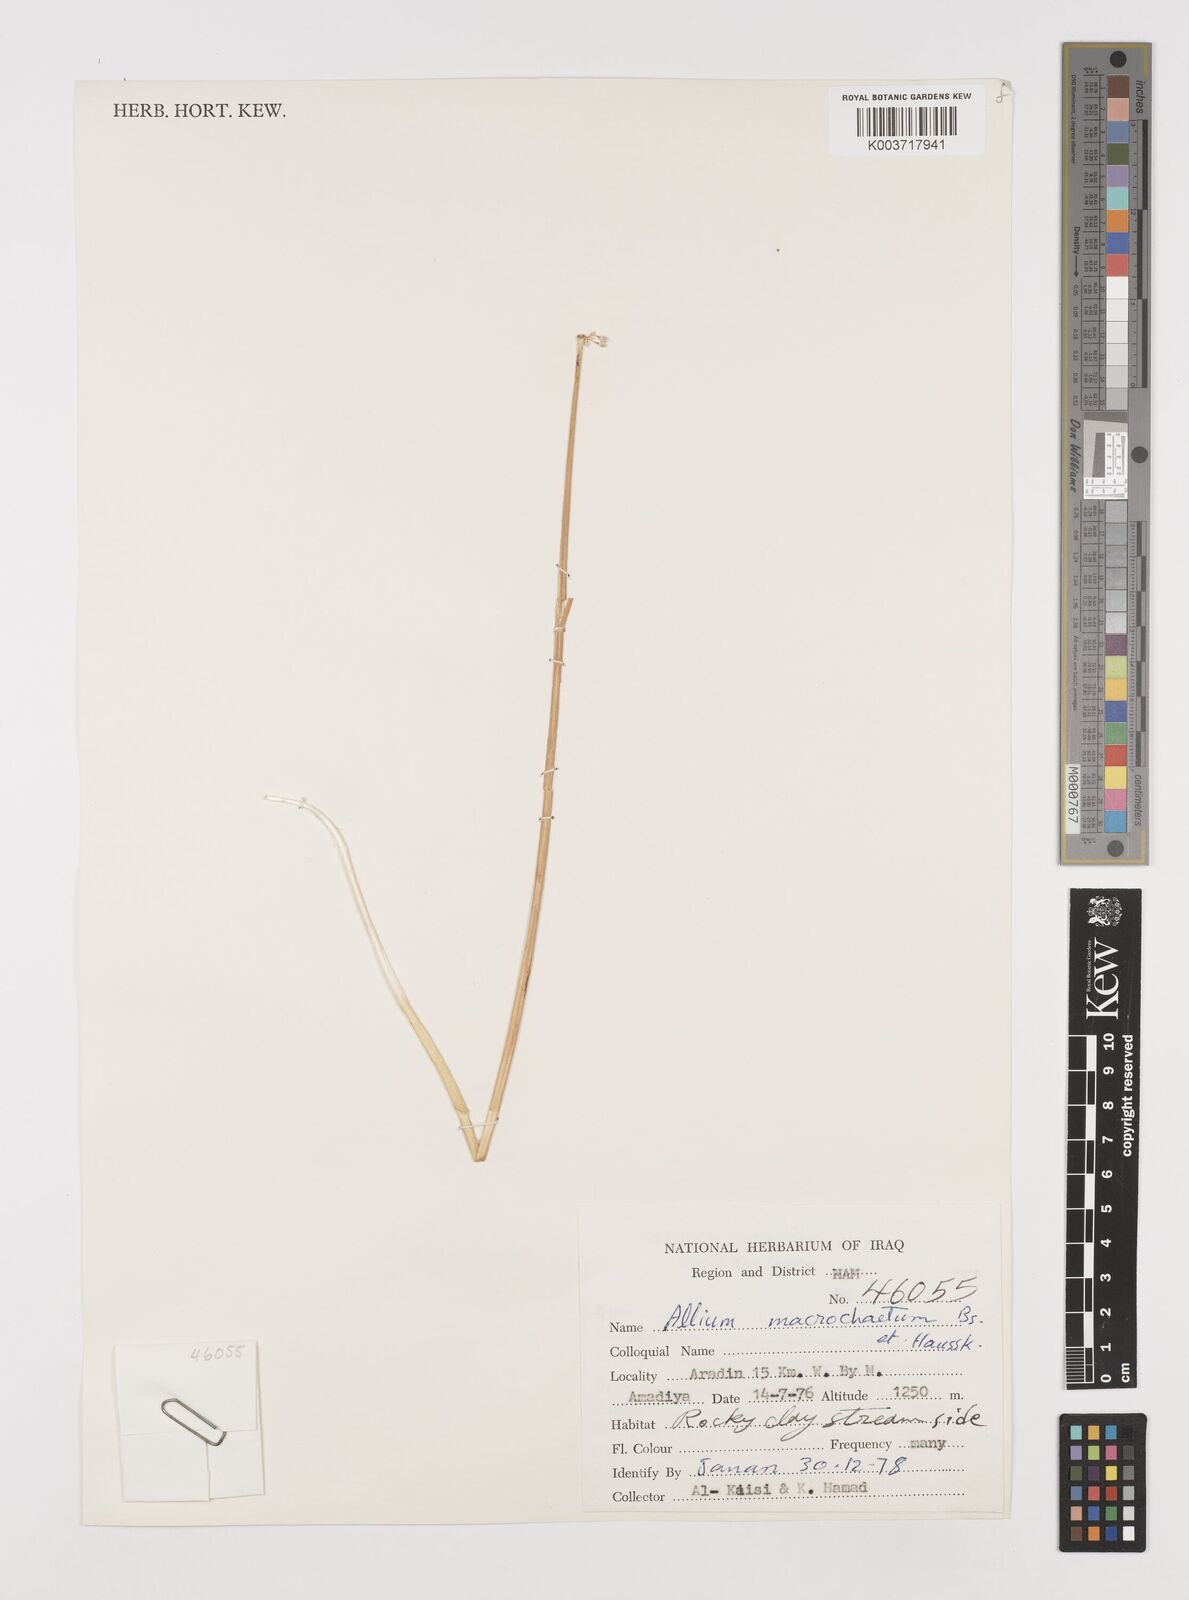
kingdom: Plantae
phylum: Tracheophyta
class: Liliopsida
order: Asparagales
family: Amaryllidaceae
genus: Allium
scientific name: Allium macrochaetum
